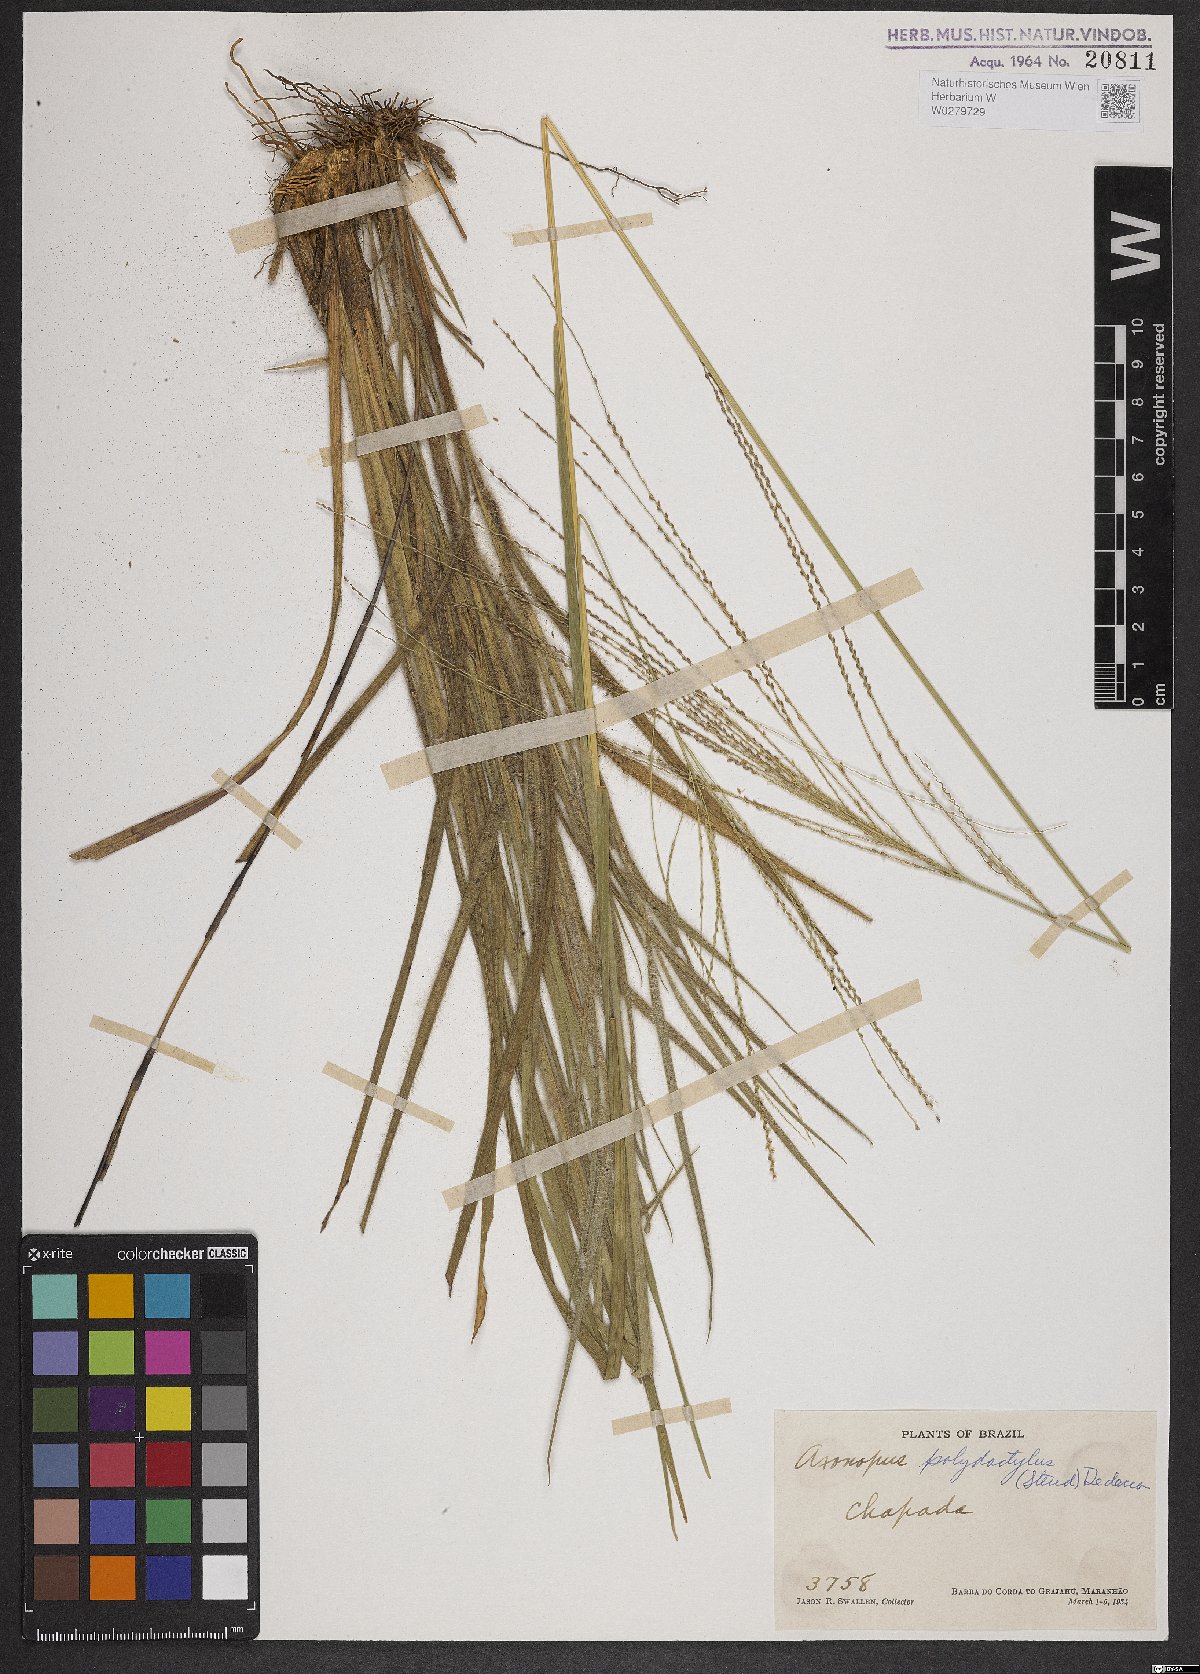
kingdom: Plantae
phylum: Tracheophyta
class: Liliopsida
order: Poales
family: Poaceae
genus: Axonopus
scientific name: Axonopus polydactylus
